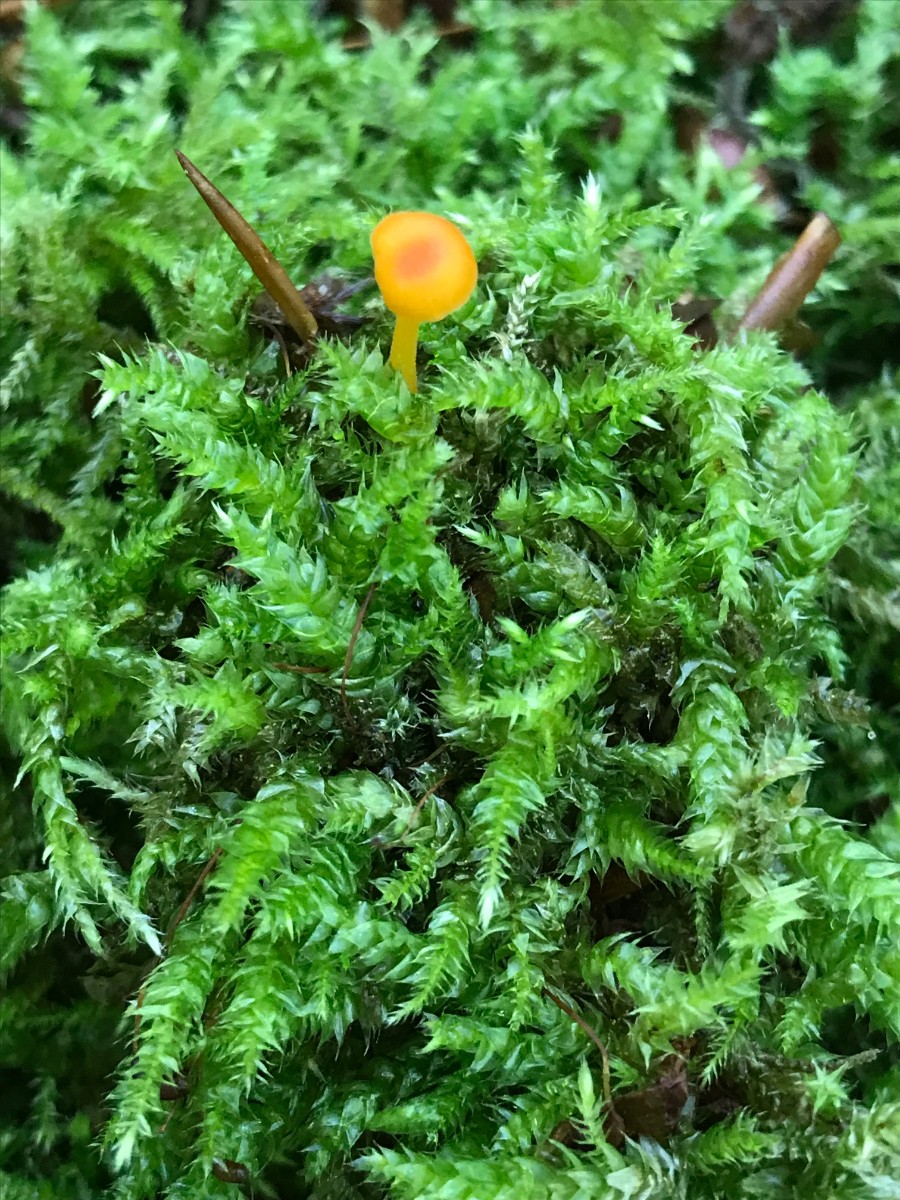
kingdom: Fungi
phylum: Basidiomycota
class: Agaricomycetes
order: Hymenochaetales
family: Rickenellaceae
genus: Rickenella
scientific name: Rickenella fibula
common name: orange mosnavlehat
